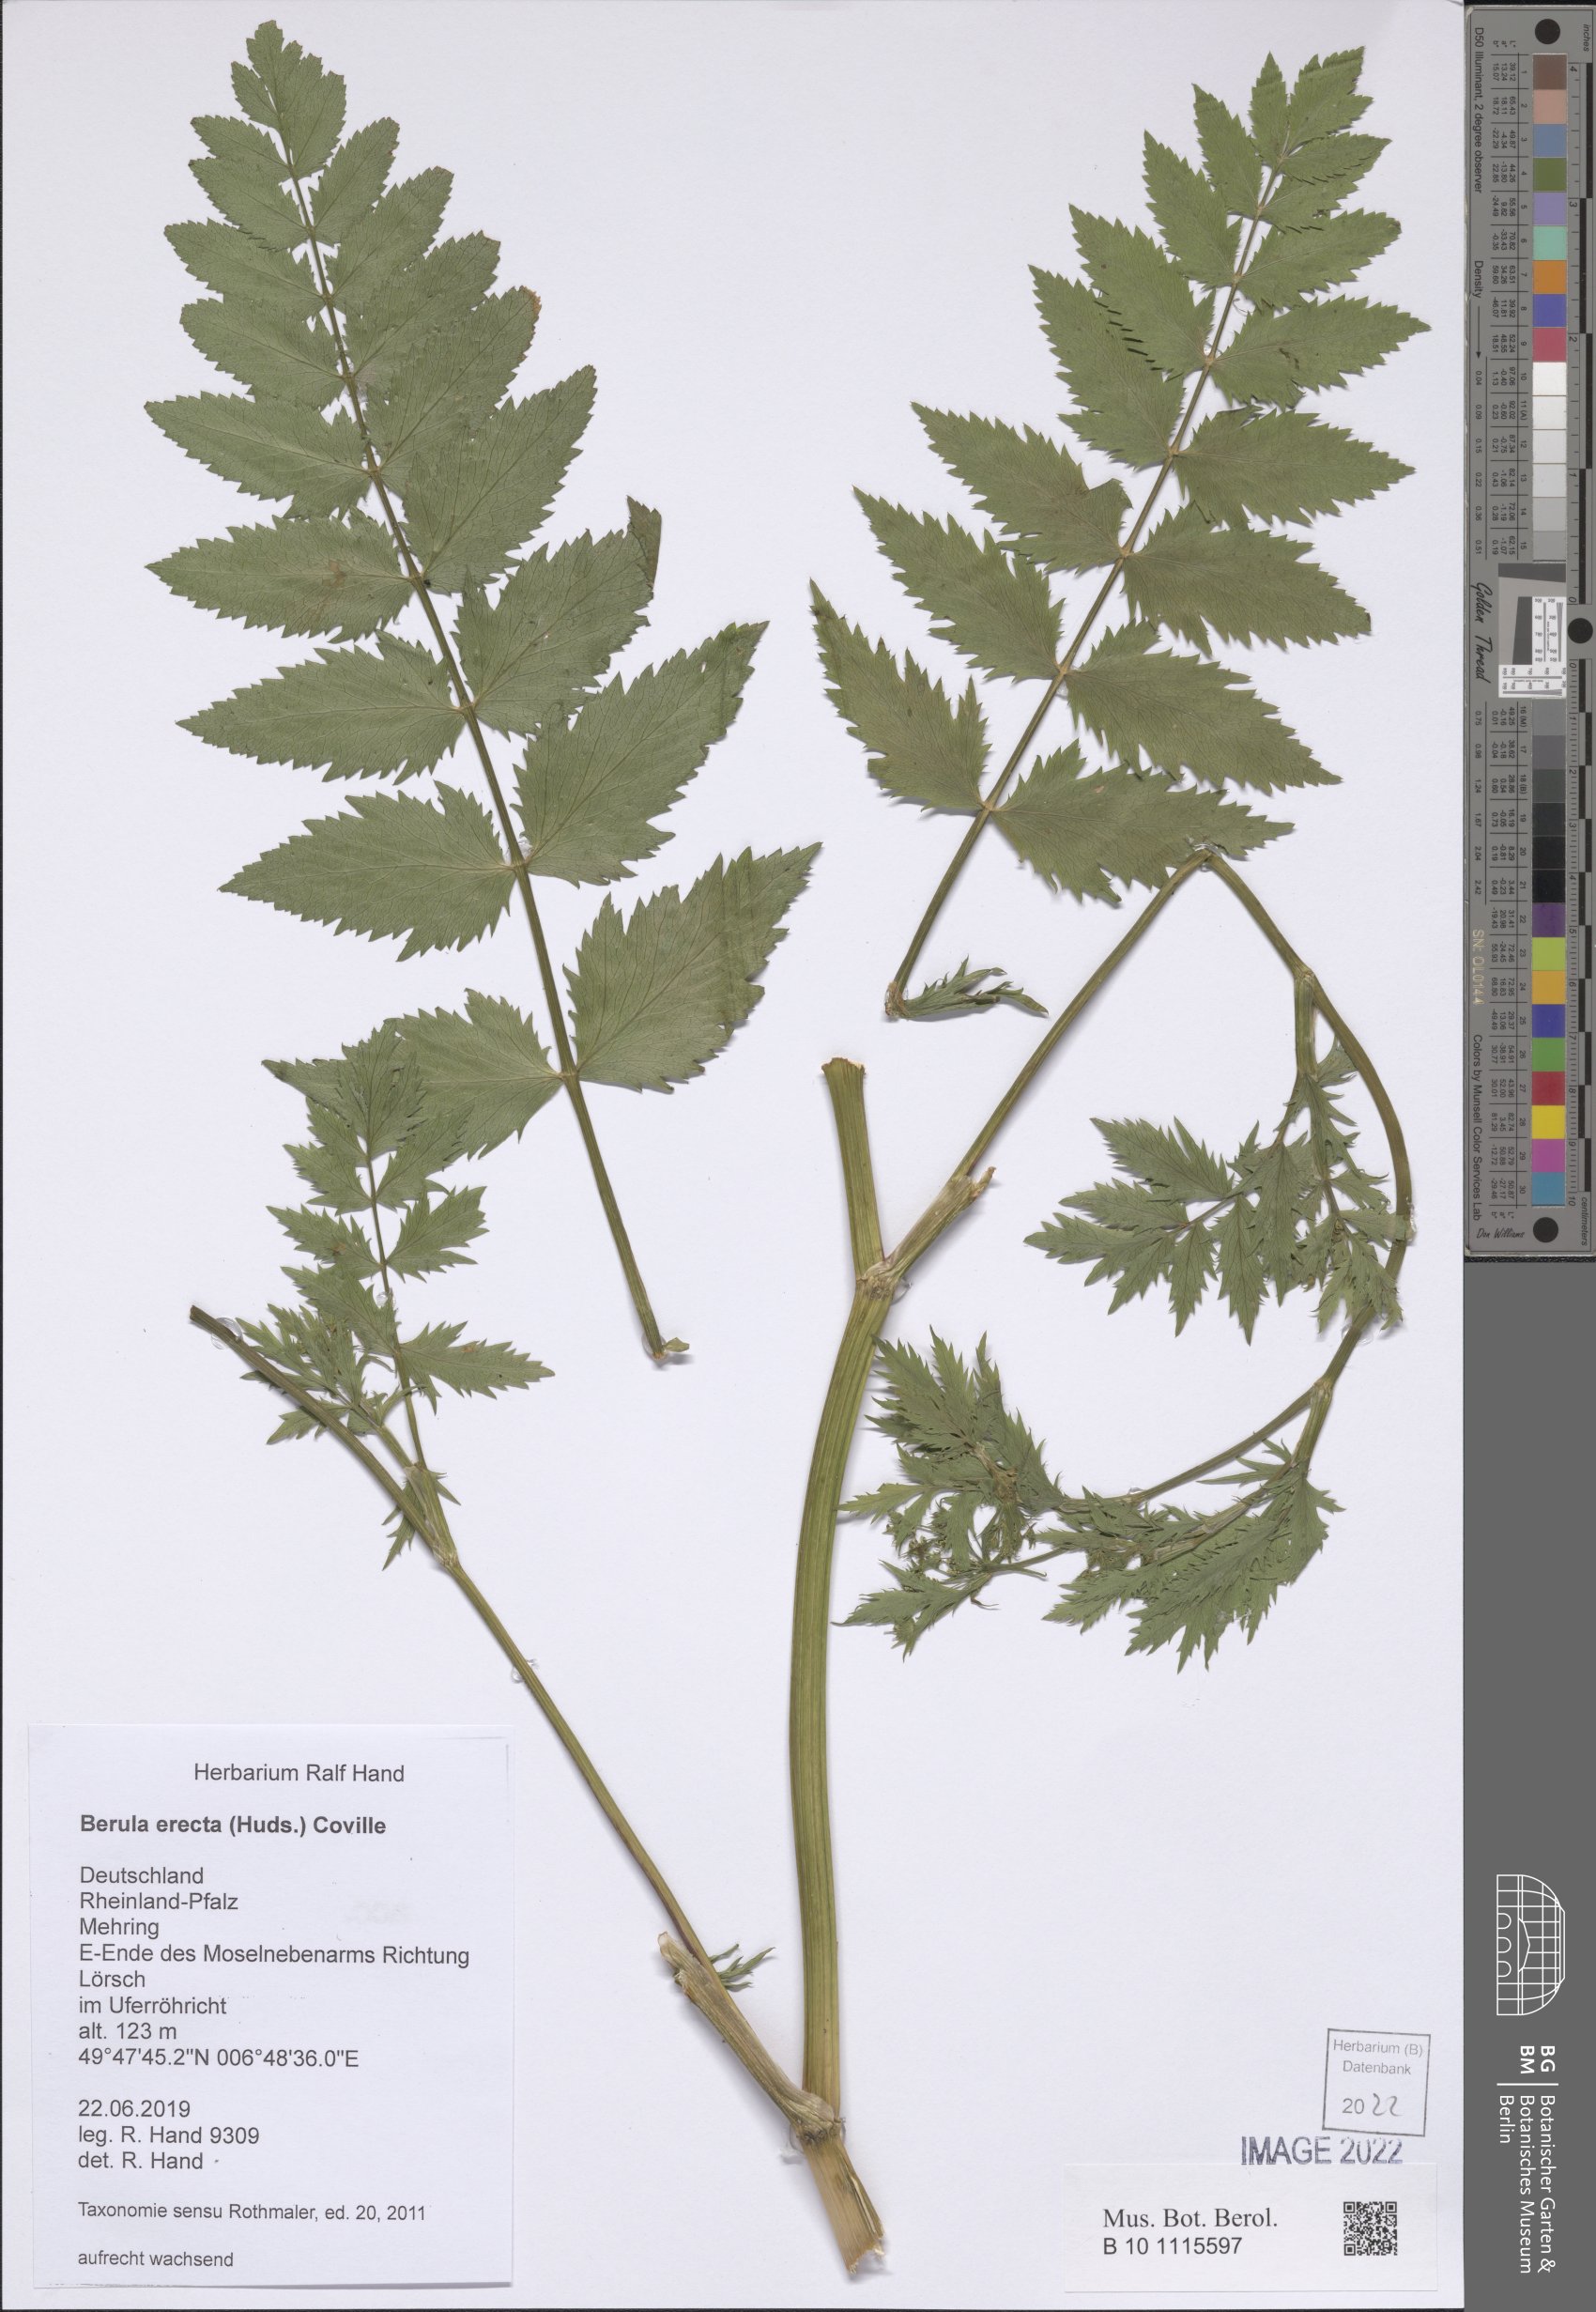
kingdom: Plantae
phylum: Tracheophyta
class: Magnoliopsida
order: Apiales
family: Apiaceae
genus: Berula
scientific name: Berula erecta
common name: Lesser water-parsnip
